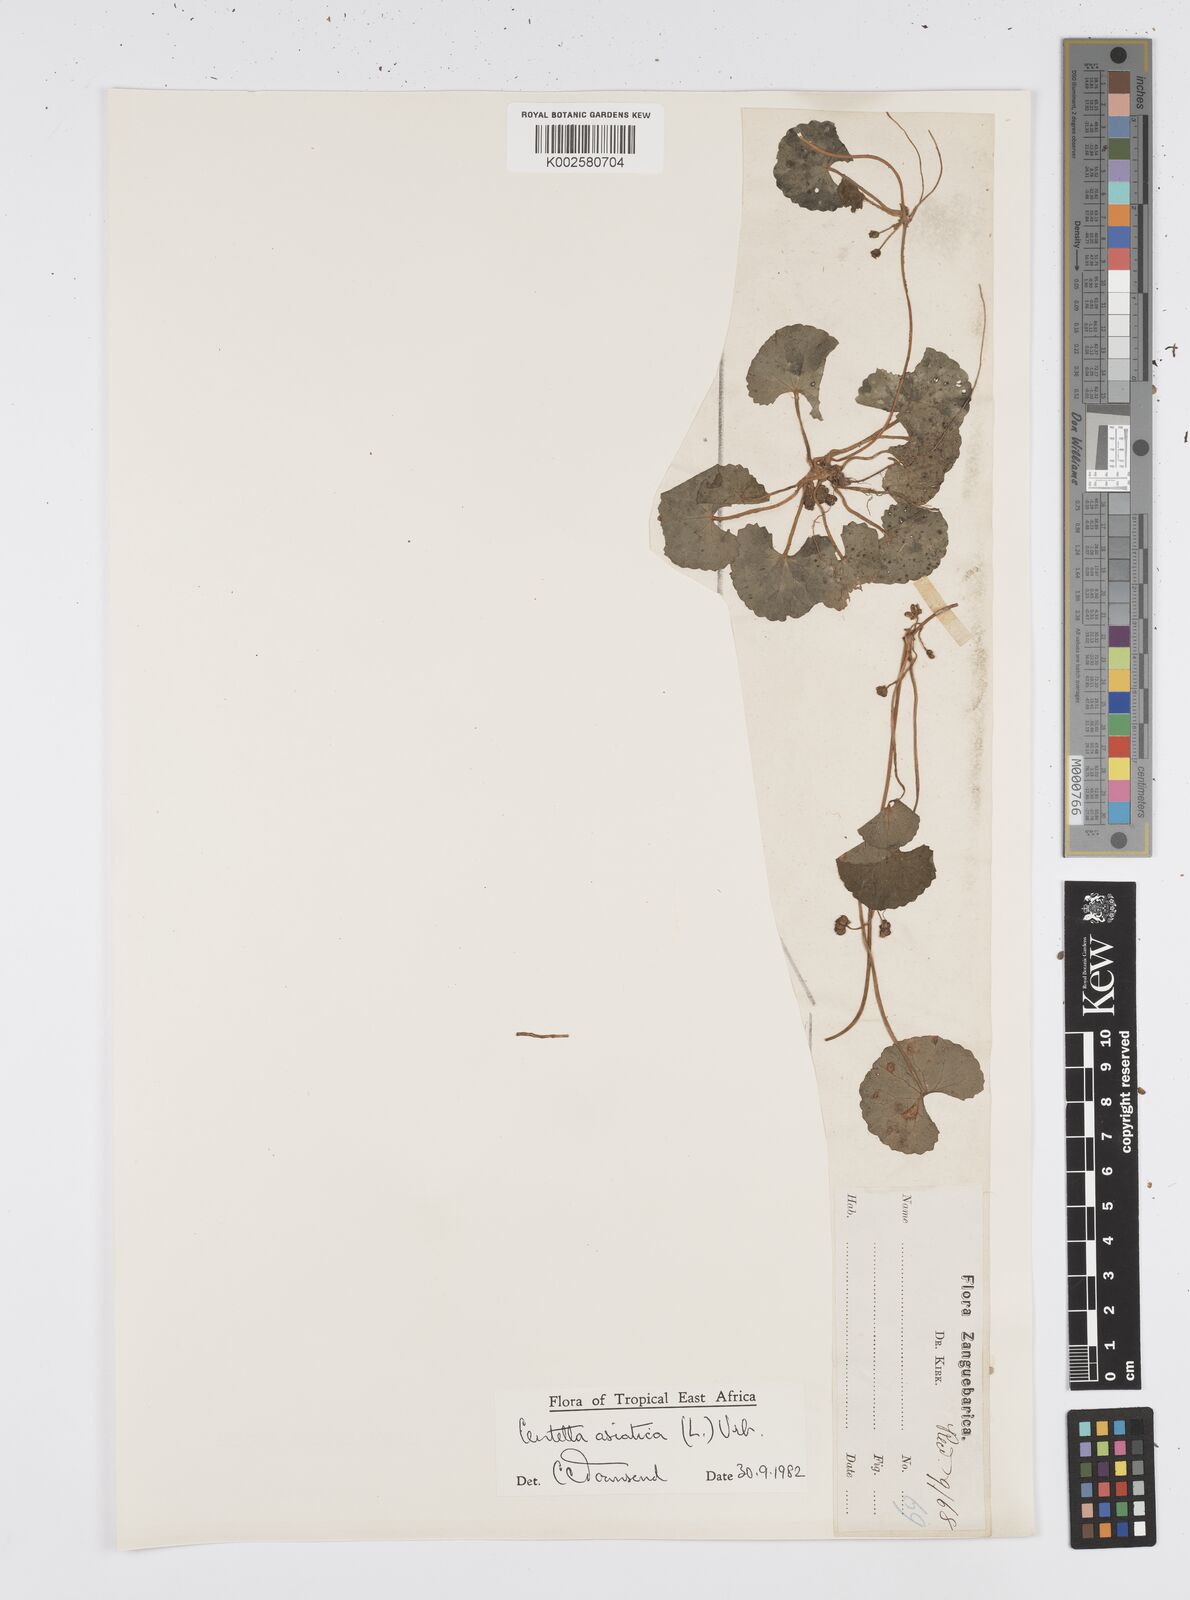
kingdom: Plantae
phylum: Tracheophyta
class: Magnoliopsida
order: Apiales
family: Apiaceae
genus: Centella
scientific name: Centella asiatica
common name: Spadeleaf
